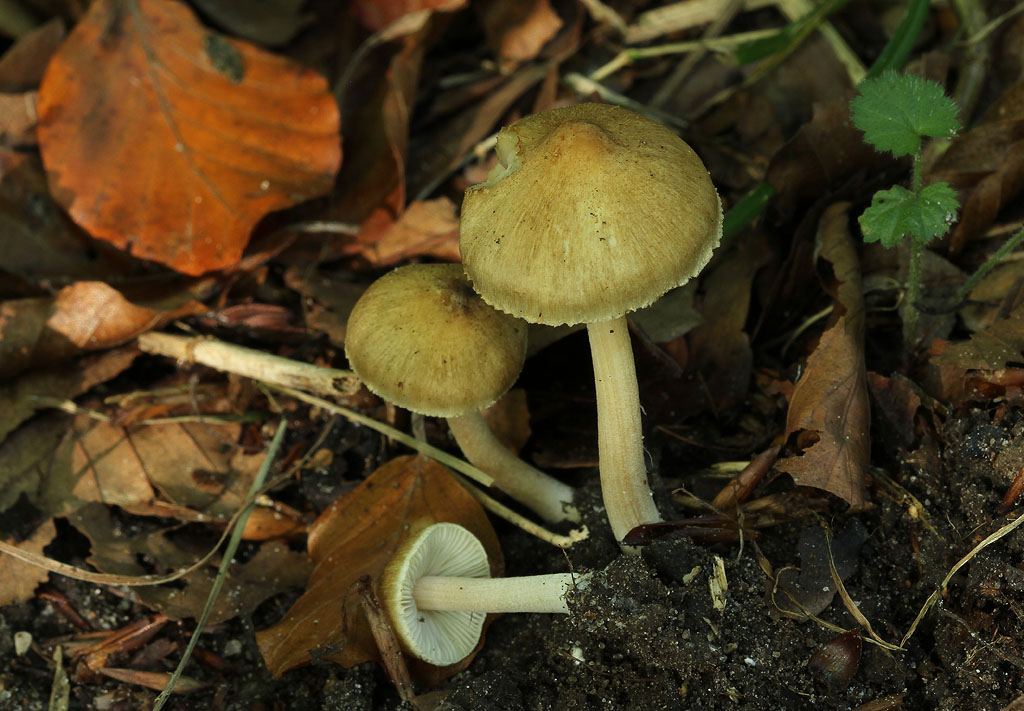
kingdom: Fungi
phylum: Basidiomycota
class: Agaricomycetes
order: Agaricales
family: Inocybaceae
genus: Inocybe
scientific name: Inocybe hirtella
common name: mandel-trævlhat
